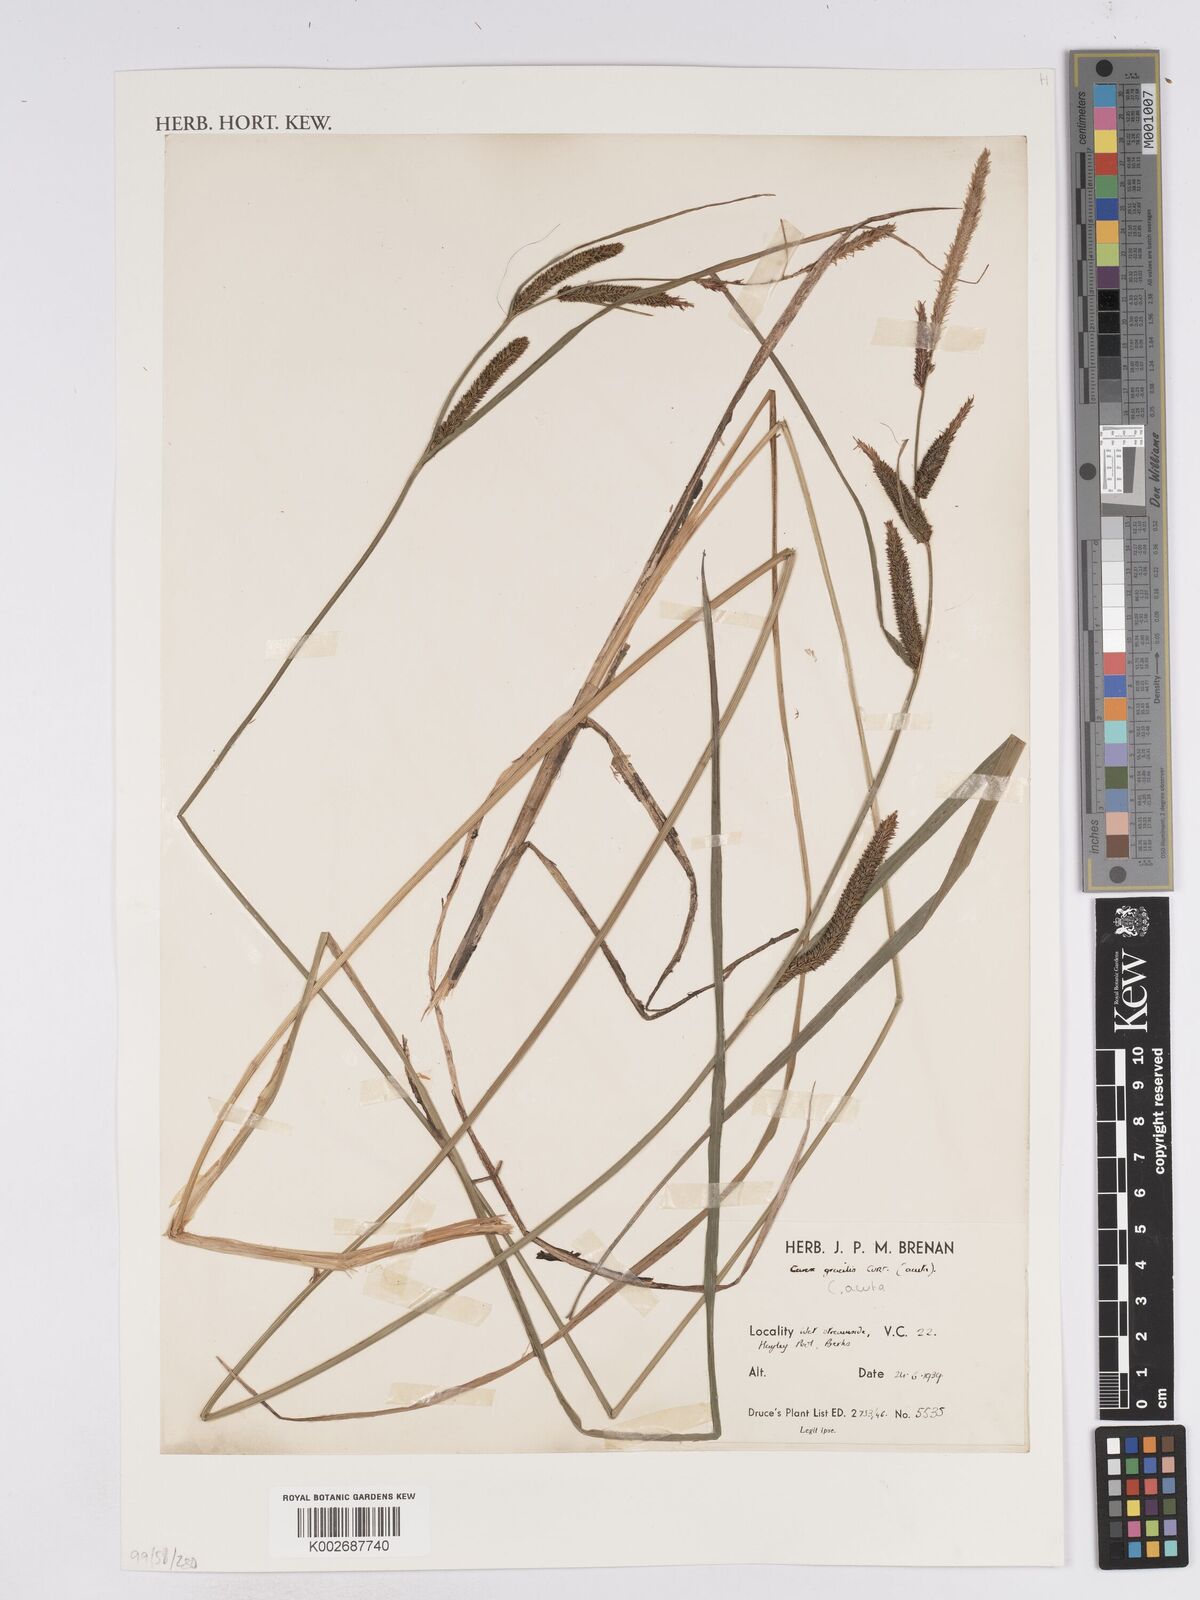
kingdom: Plantae
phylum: Tracheophyta
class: Liliopsida
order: Poales
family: Cyperaceae
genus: Carex
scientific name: Carex
